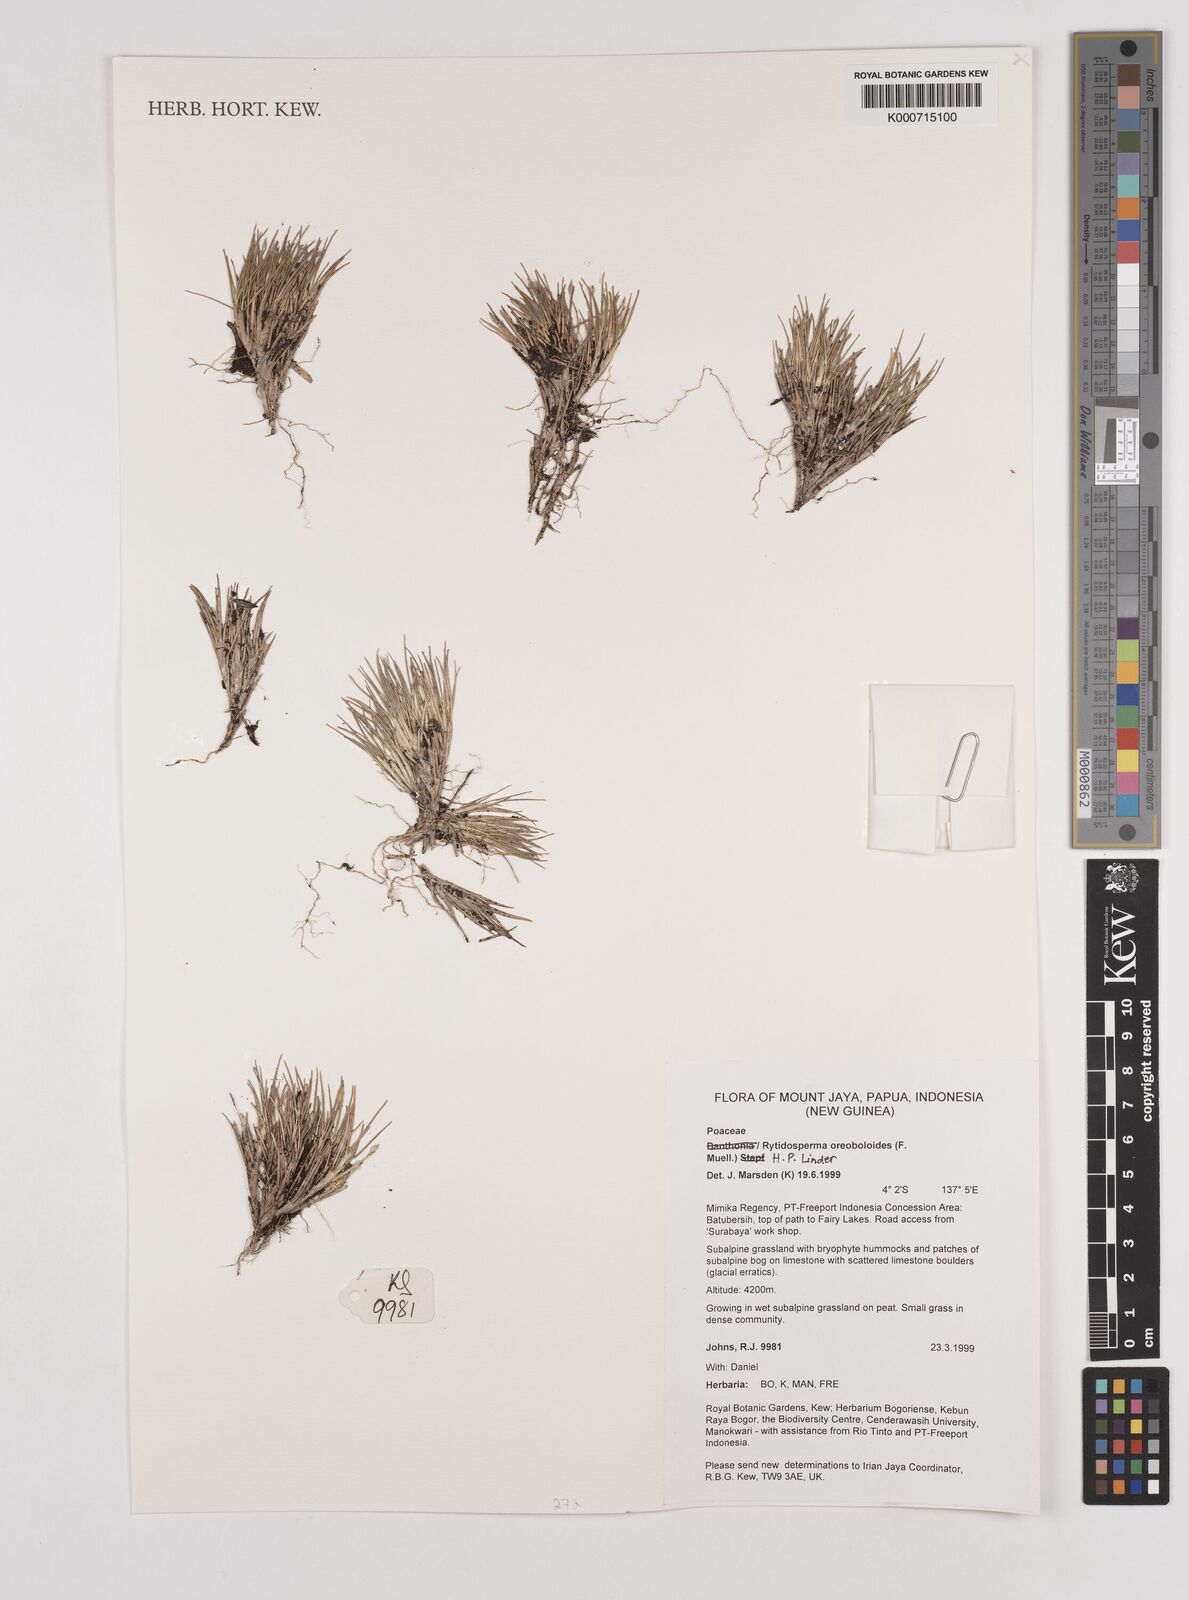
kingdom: Plantae
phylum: Tracheophyta
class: Liliopsida
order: Poales
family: Poaceae
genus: Rytidosperma
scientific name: Rytidosperma oreoboloides
